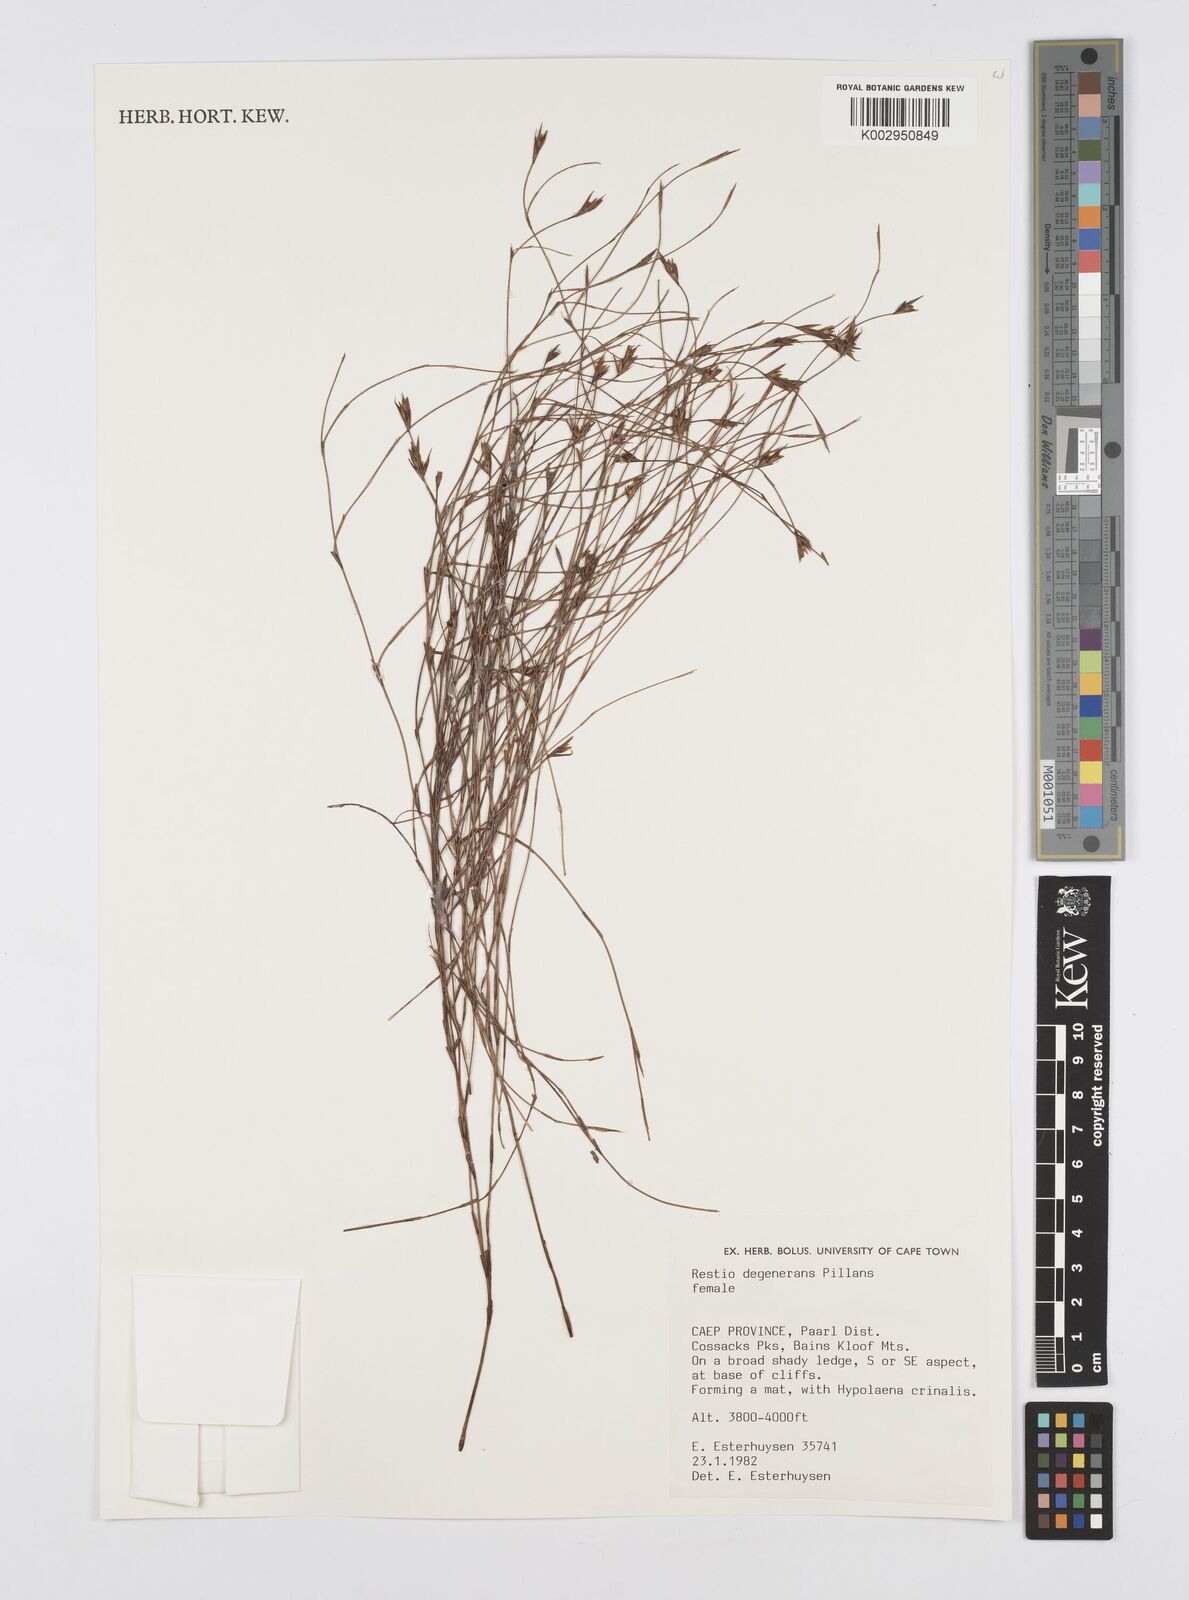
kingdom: Plantae
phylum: Tracheophyta
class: Liliopsida
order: Poales
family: Restionaceae
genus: Restio
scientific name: Restio degenerans
